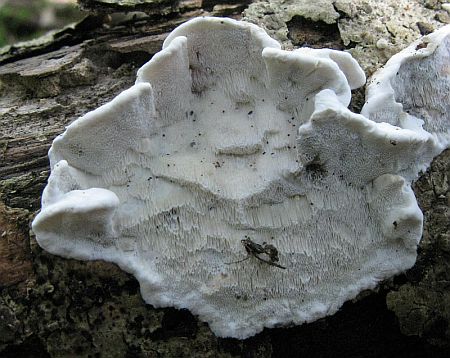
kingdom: Fungi
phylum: Basidiomycota
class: Agaricomycetes
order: Polyporales
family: Polyporaceae
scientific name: Polyporaceae
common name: poresvampfamilien
